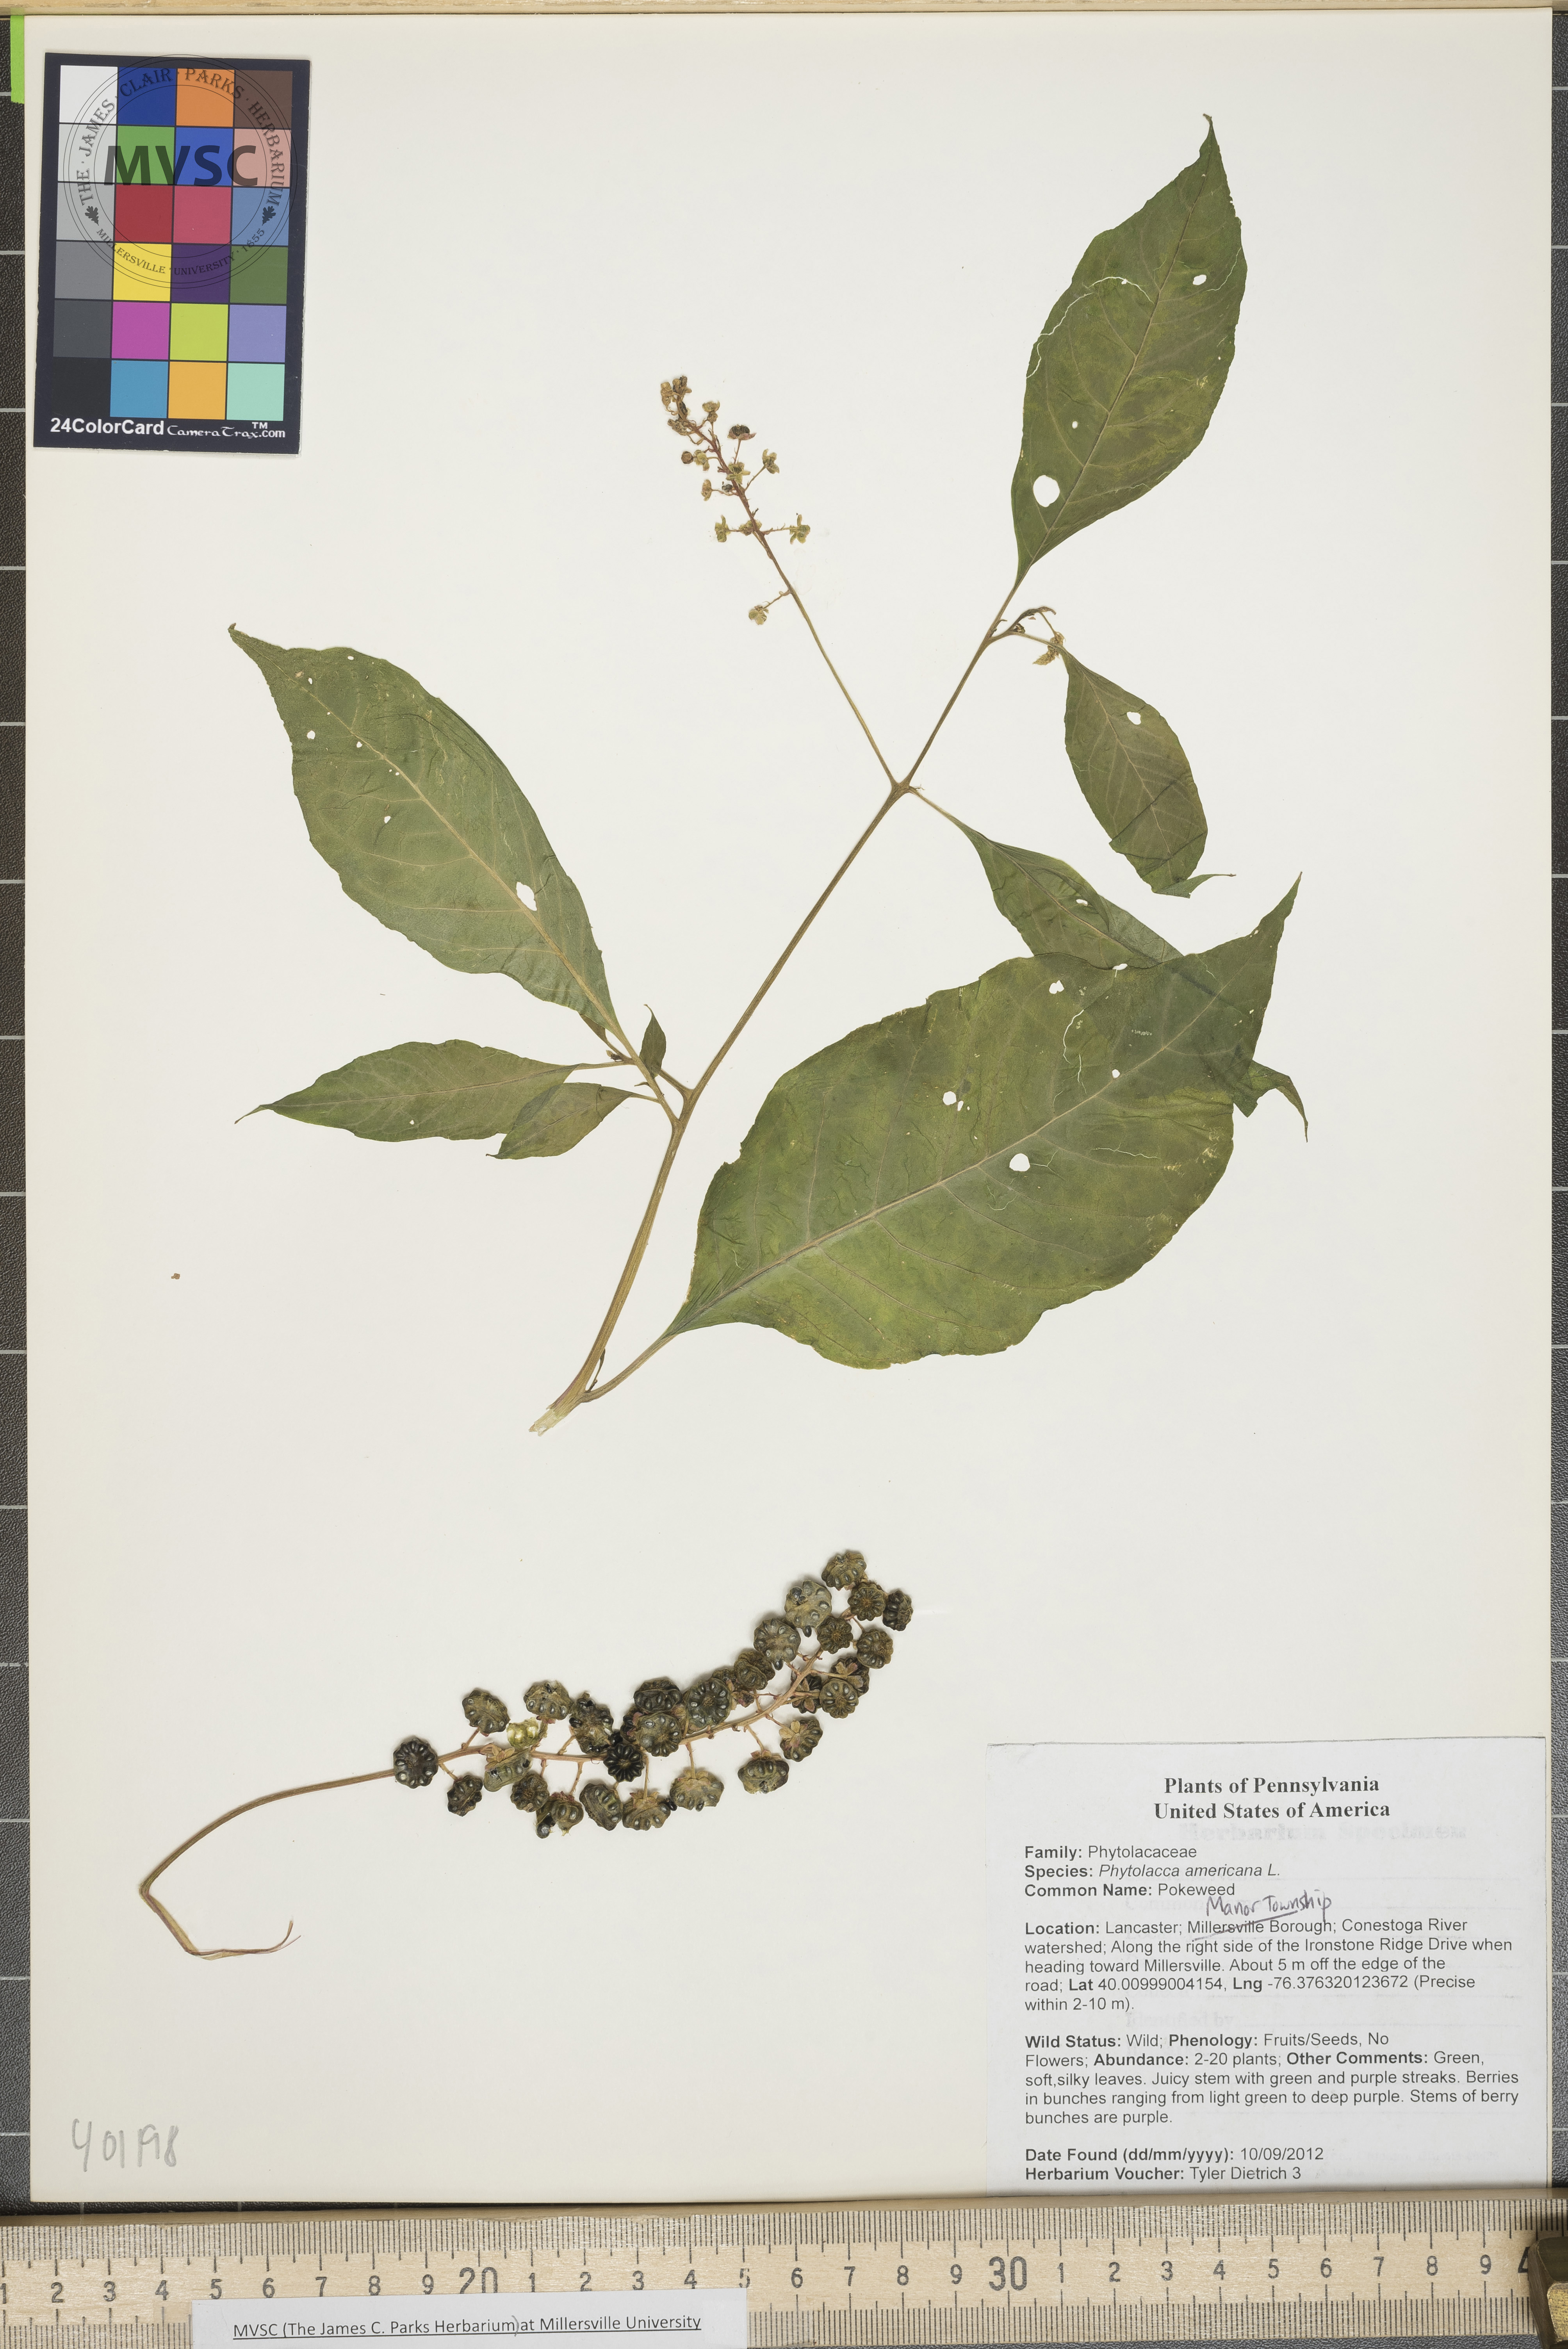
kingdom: Plantae
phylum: Tracheophyta
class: Magnoliopsida
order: Caryophyllales
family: Phytolaccaceae
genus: Phytolacca
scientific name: Phytolacca americana
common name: Pokeweed
